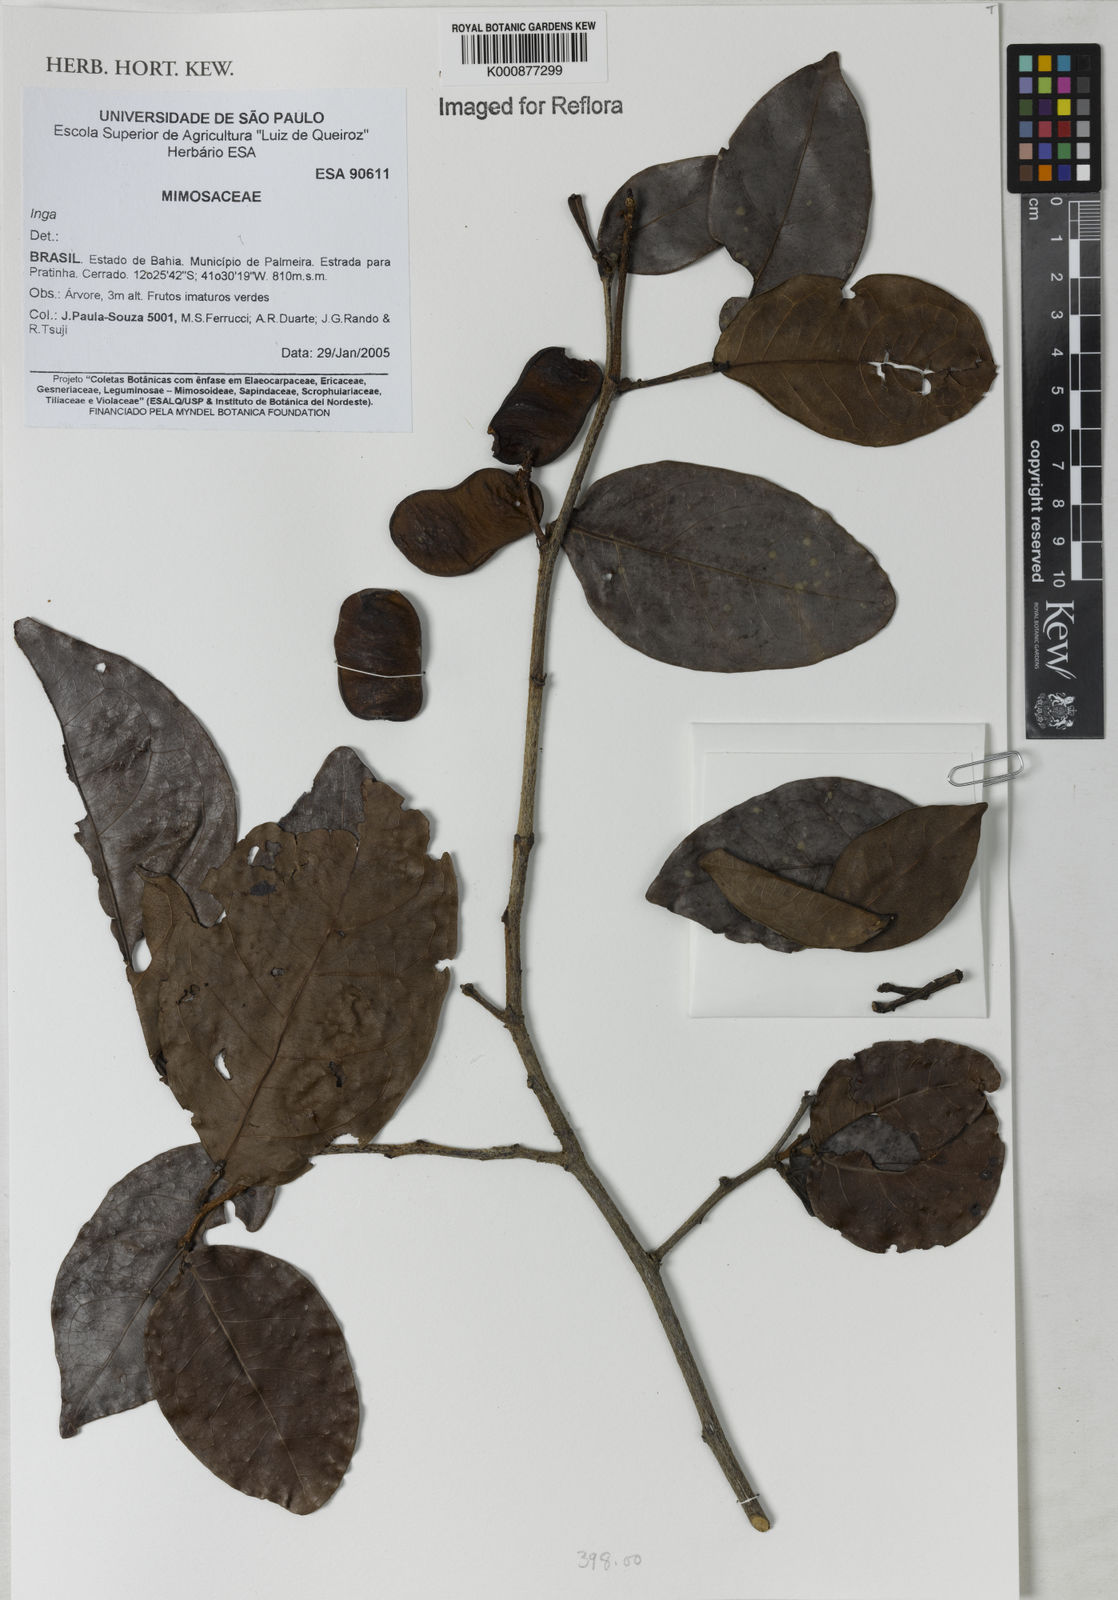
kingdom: Plantae
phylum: Tracheophyta
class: Magnoliopsida
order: Fabales
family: Fabaceae
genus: Inga
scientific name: Inga
